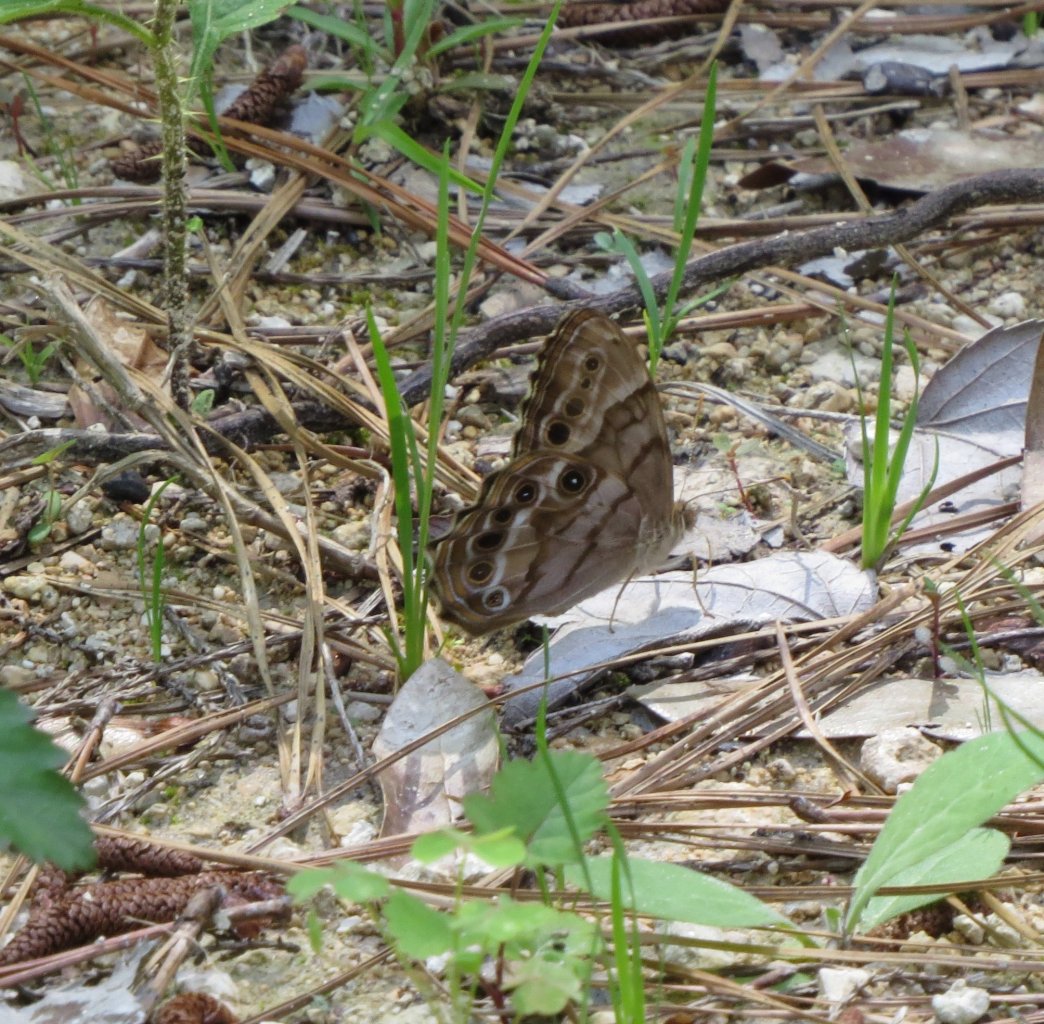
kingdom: Animalia
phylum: Arthropoda
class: Insecta
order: Lepidoptera
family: Nymphalidae
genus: Enodia
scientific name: Enodia portlandia
